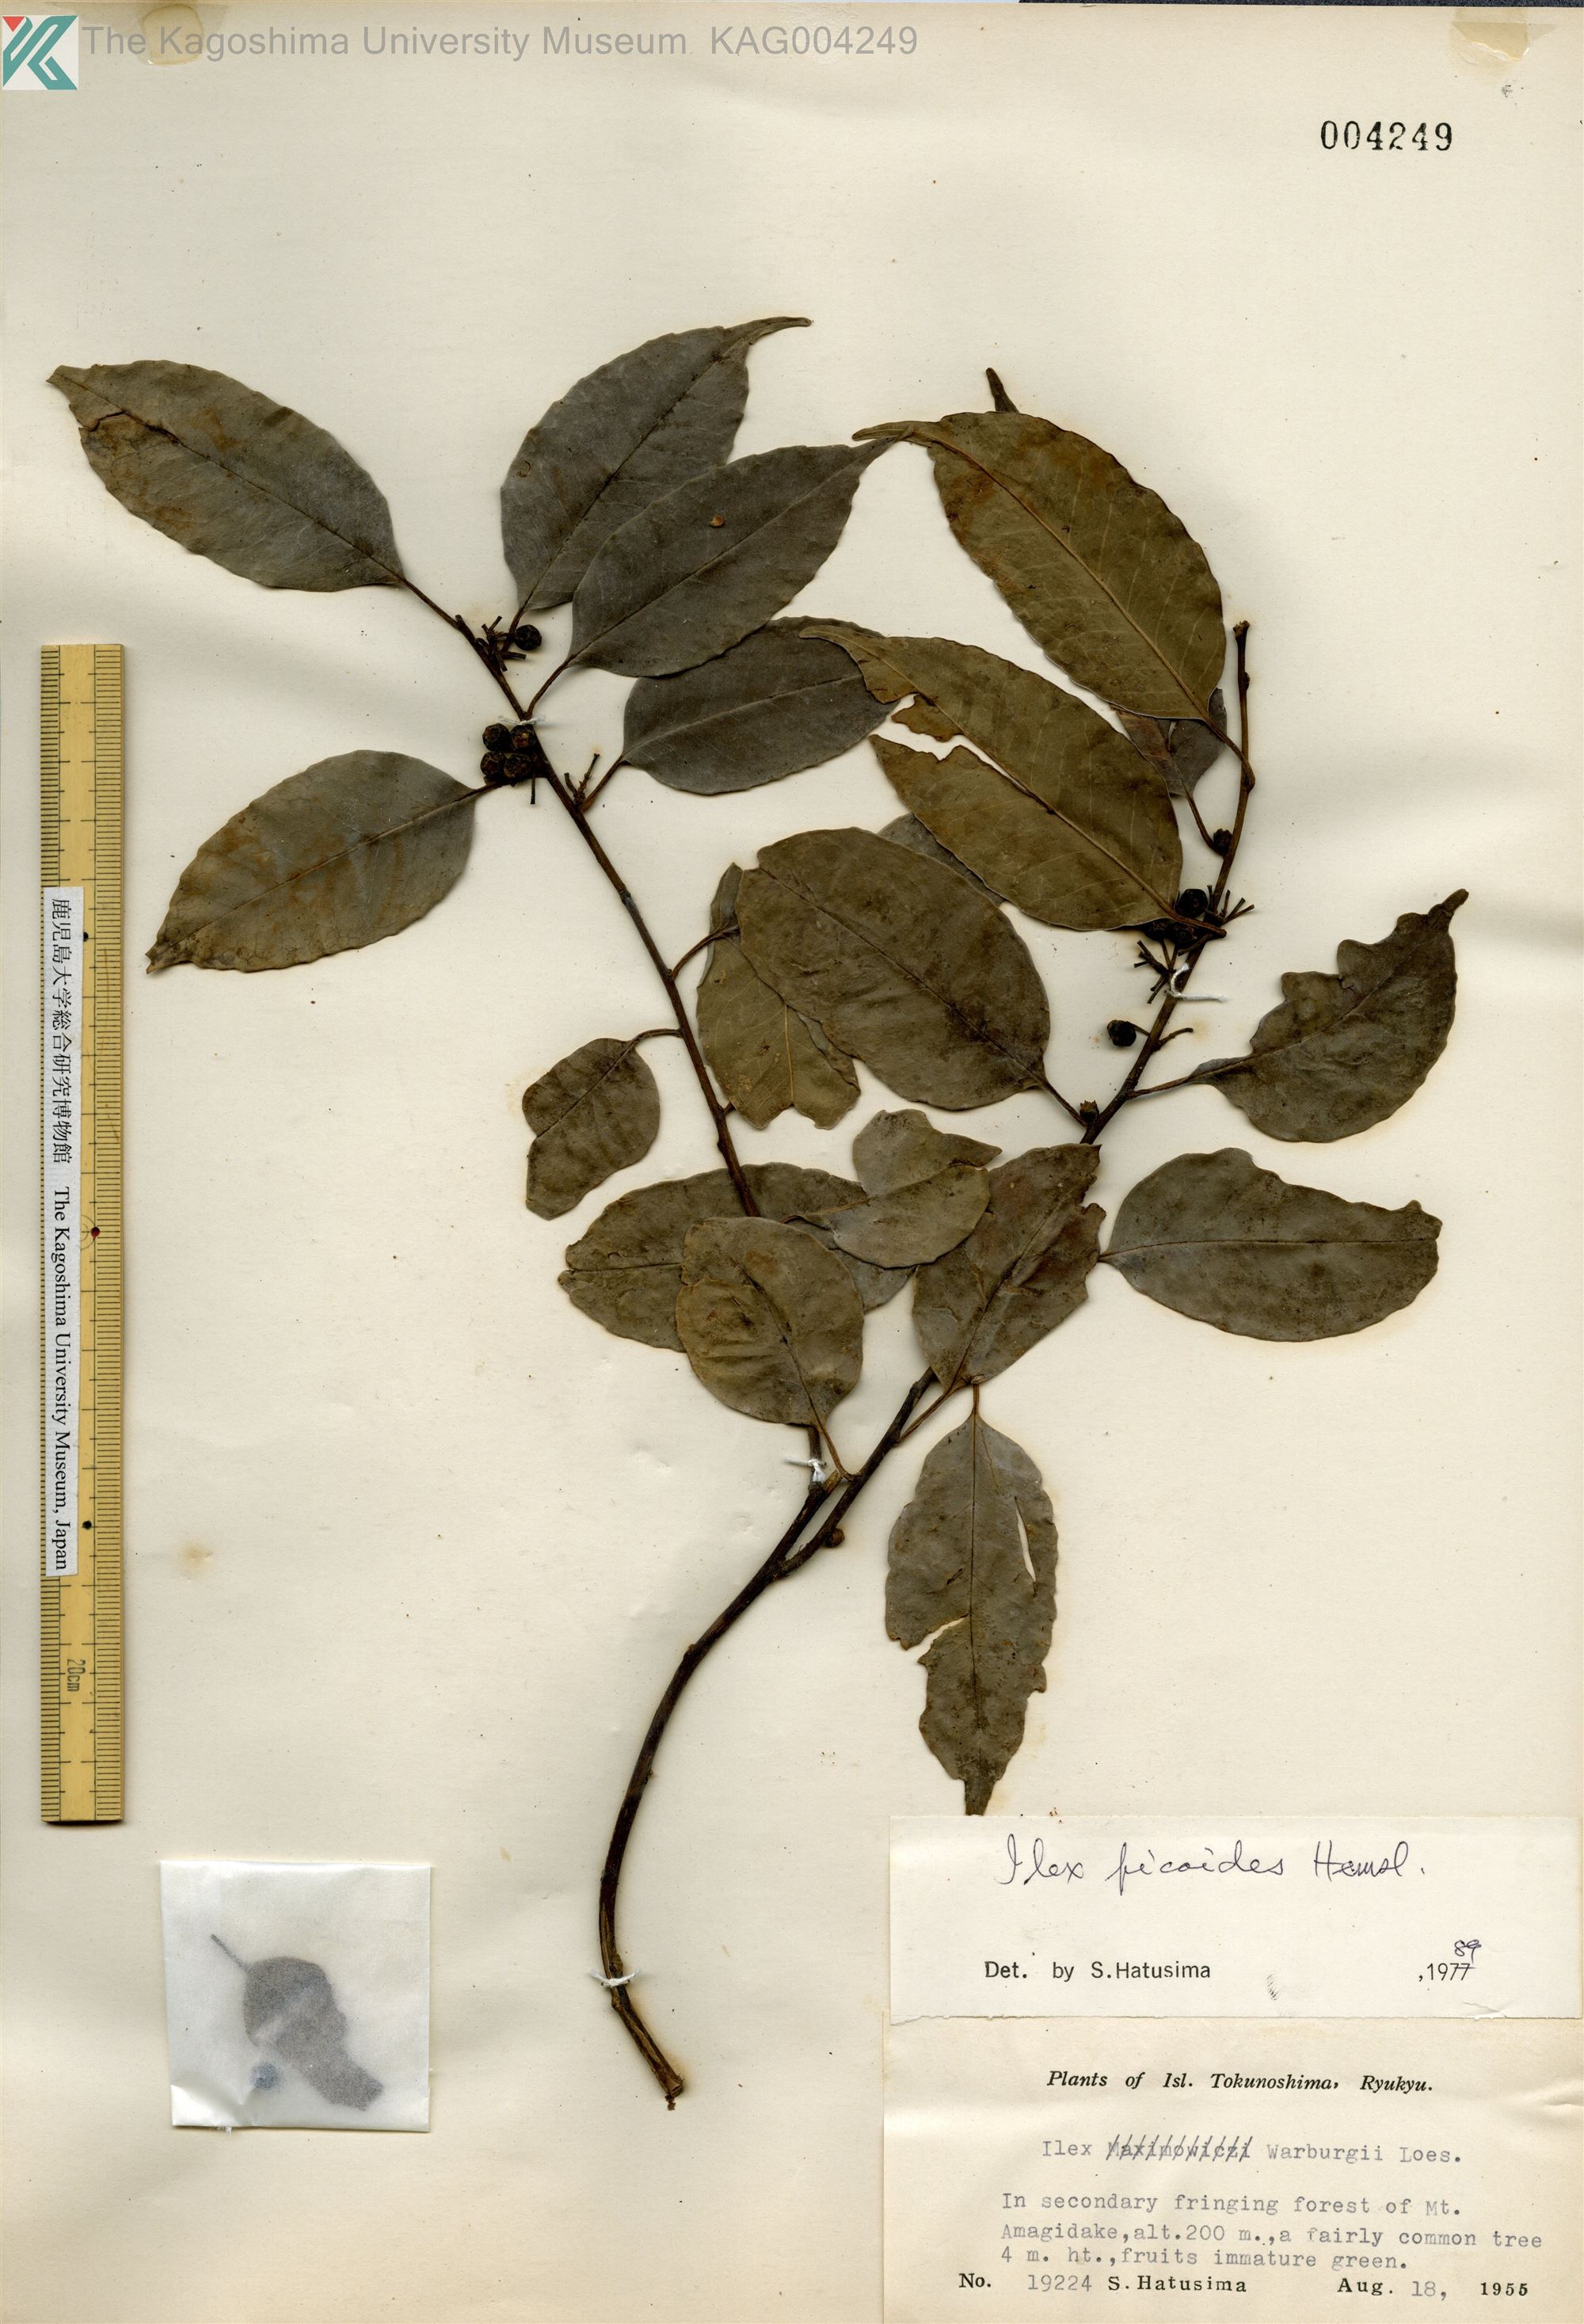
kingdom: Plantae
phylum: Tracheophyta
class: Magnoliopsida
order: Aquifoliales
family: Aquifoliaceae
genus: Ilex
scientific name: Ilex warburgii
